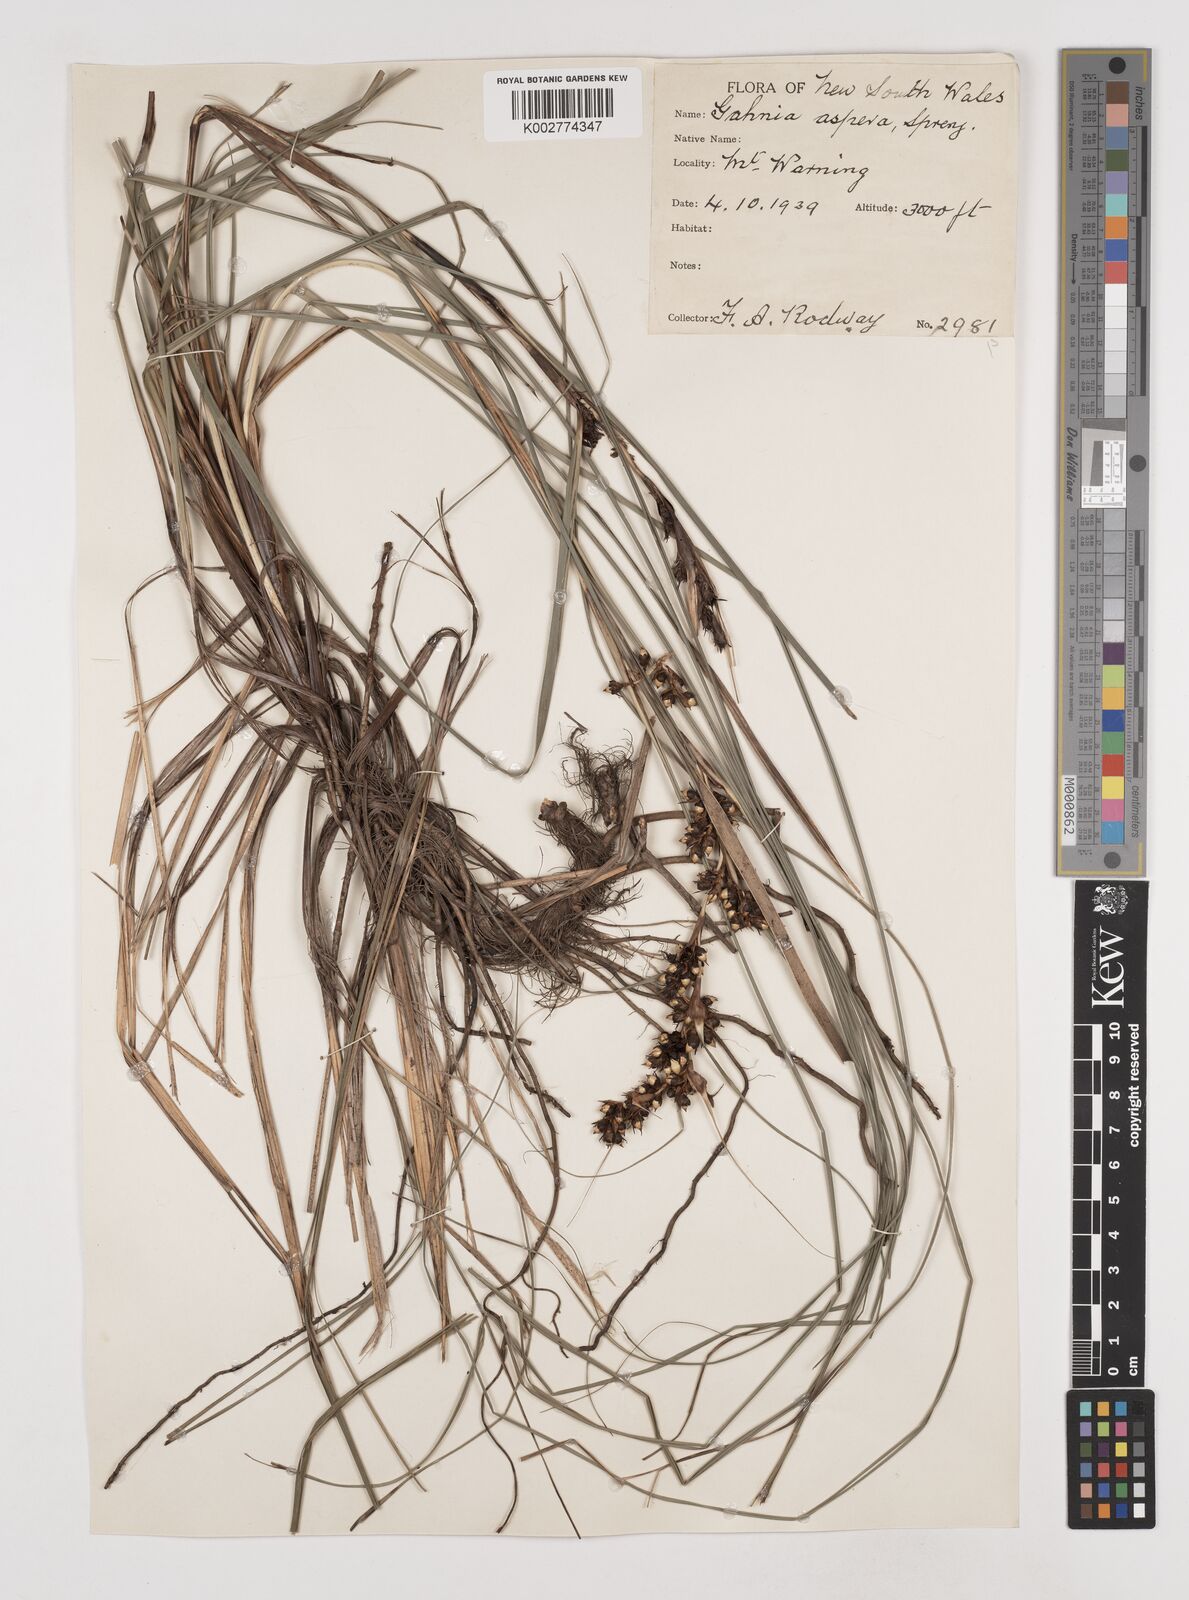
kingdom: Plantae
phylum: Tracheophyta
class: Liliopsida
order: Poales
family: Cyperaceae
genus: Gahnia
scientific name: Gahnia aspera
